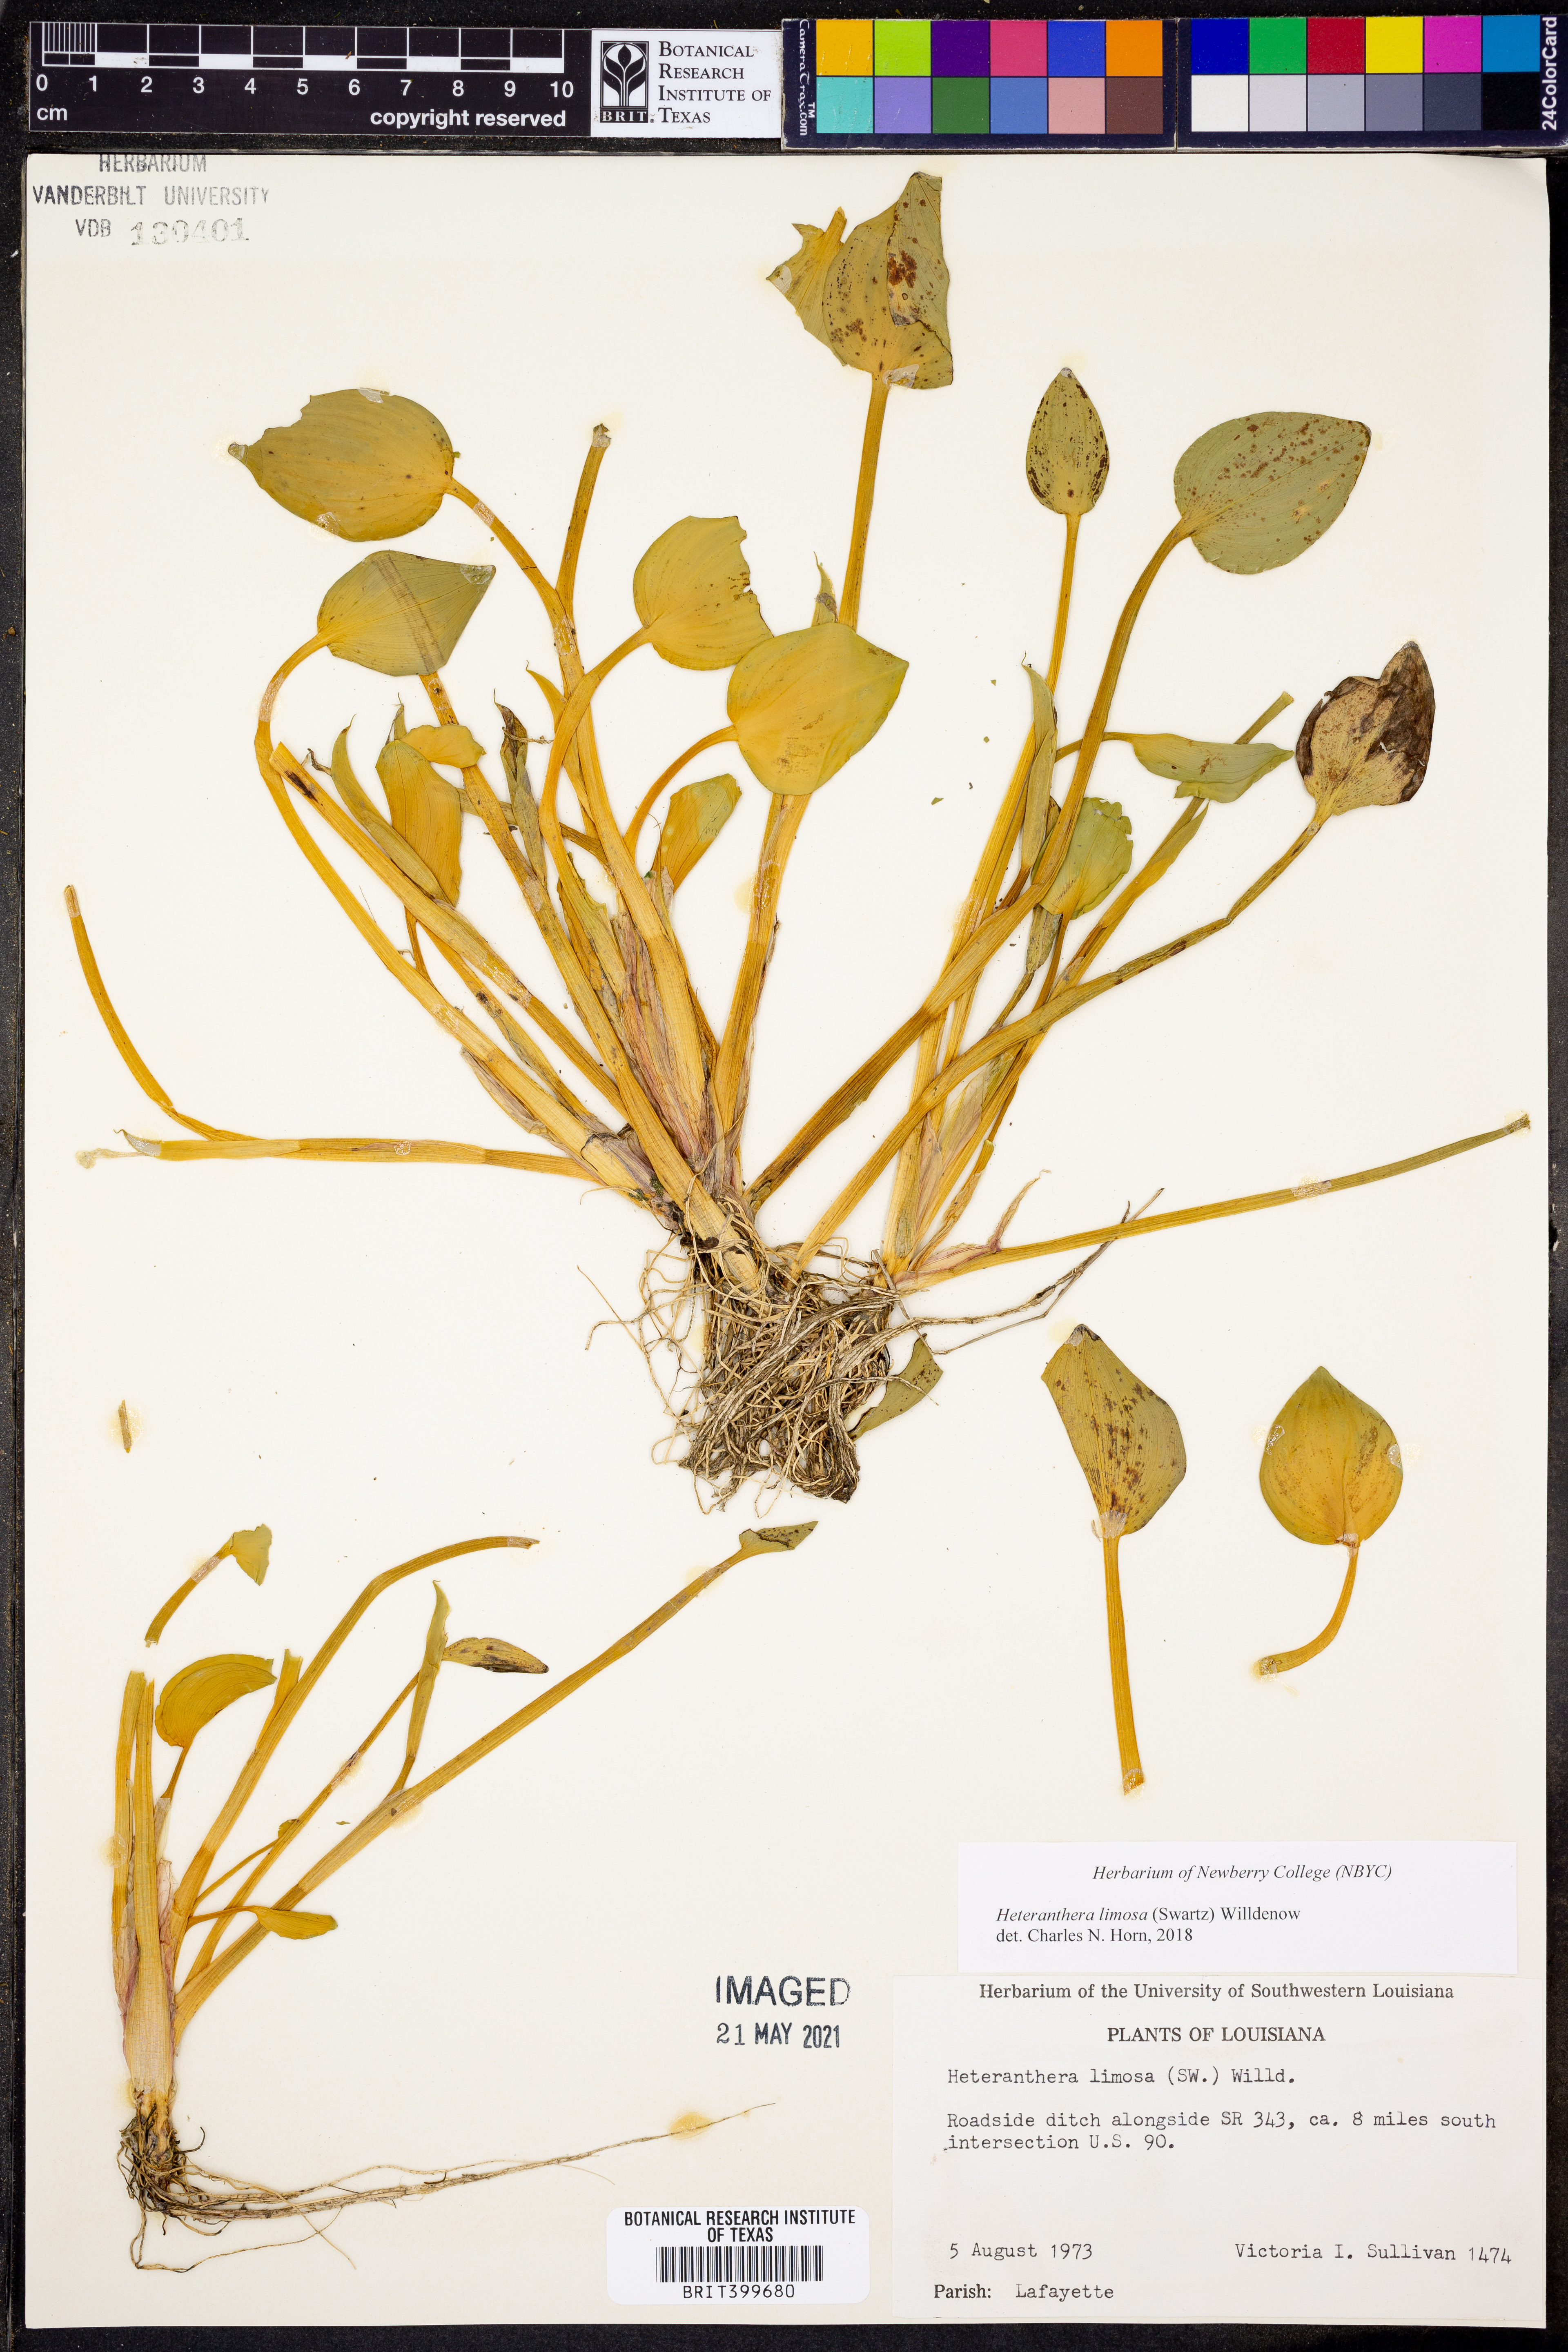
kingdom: Plantae
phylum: Tracheophyta
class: Liliopsida
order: Commelinales
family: Pontederiaceae
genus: Heteranthera
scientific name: Heteranthera limosa
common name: Blue mud-plantain
